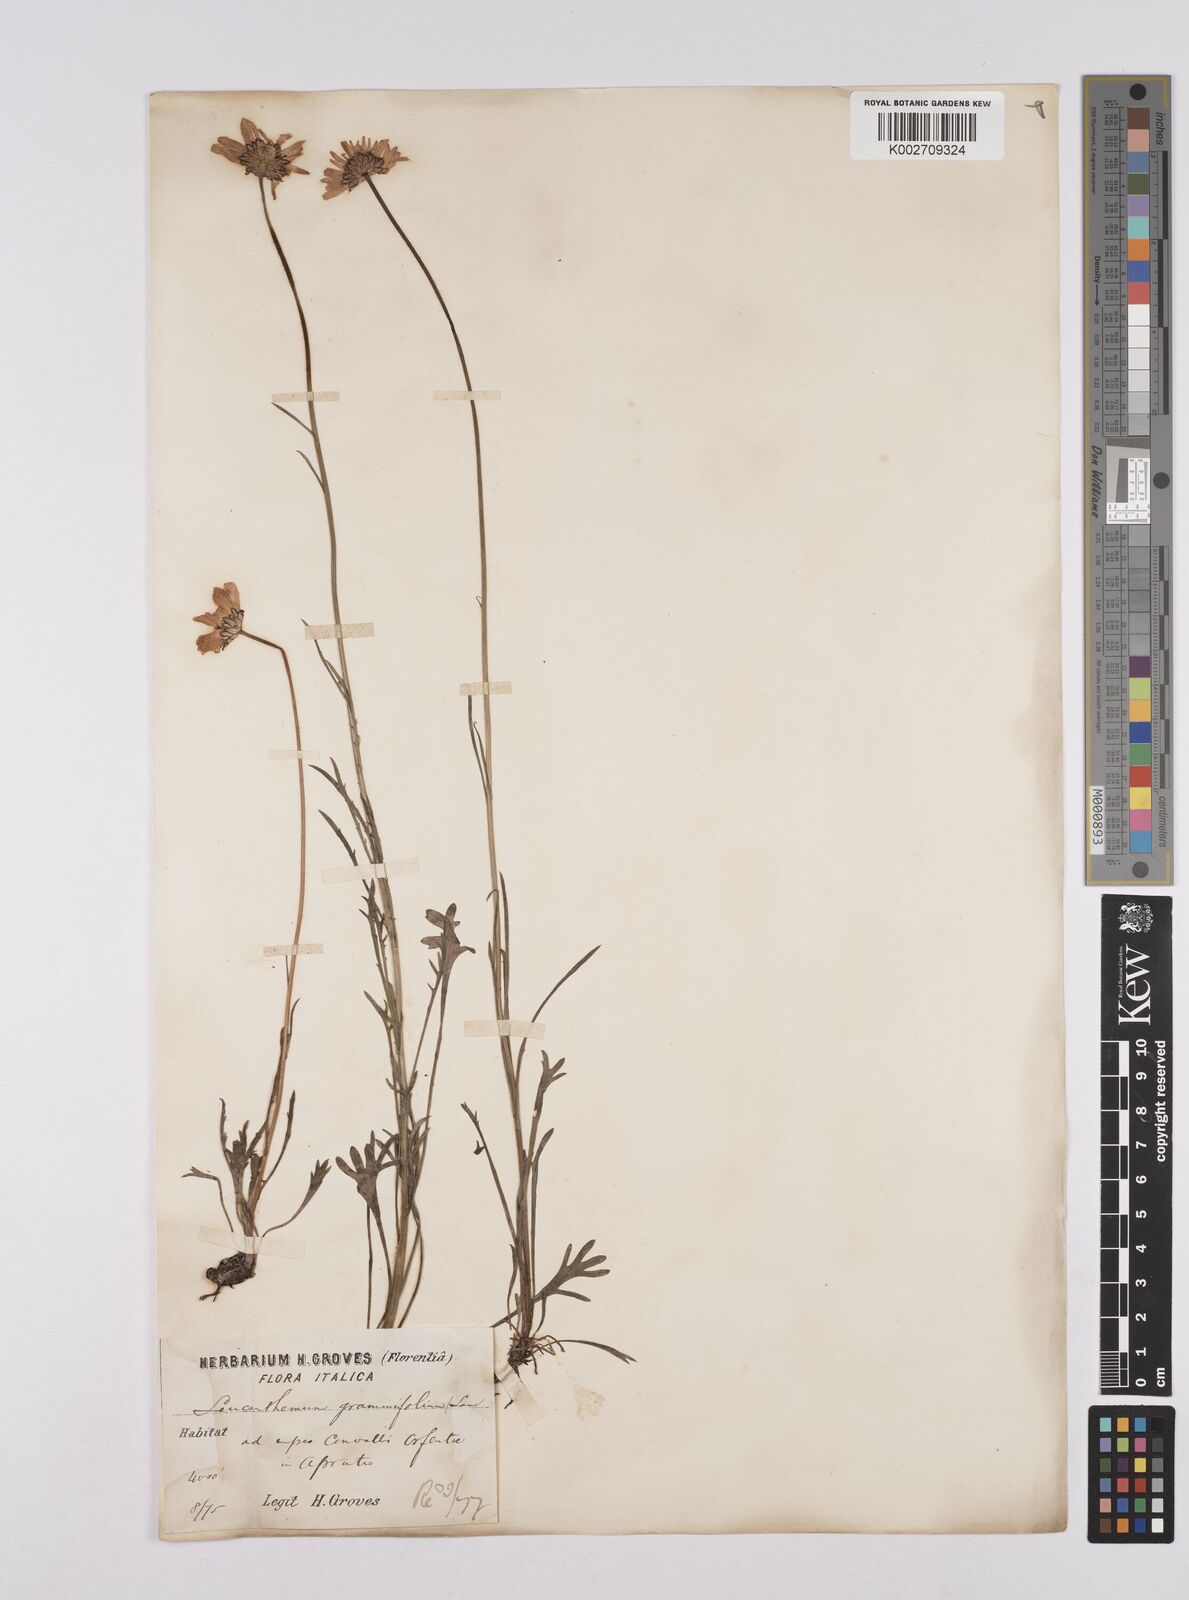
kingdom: Plantae
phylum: Tracheophyta
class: Magnoliopsida
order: Asterales
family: Asteraceae
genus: Leucanthemum
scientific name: Leucanthemum chloroticum
